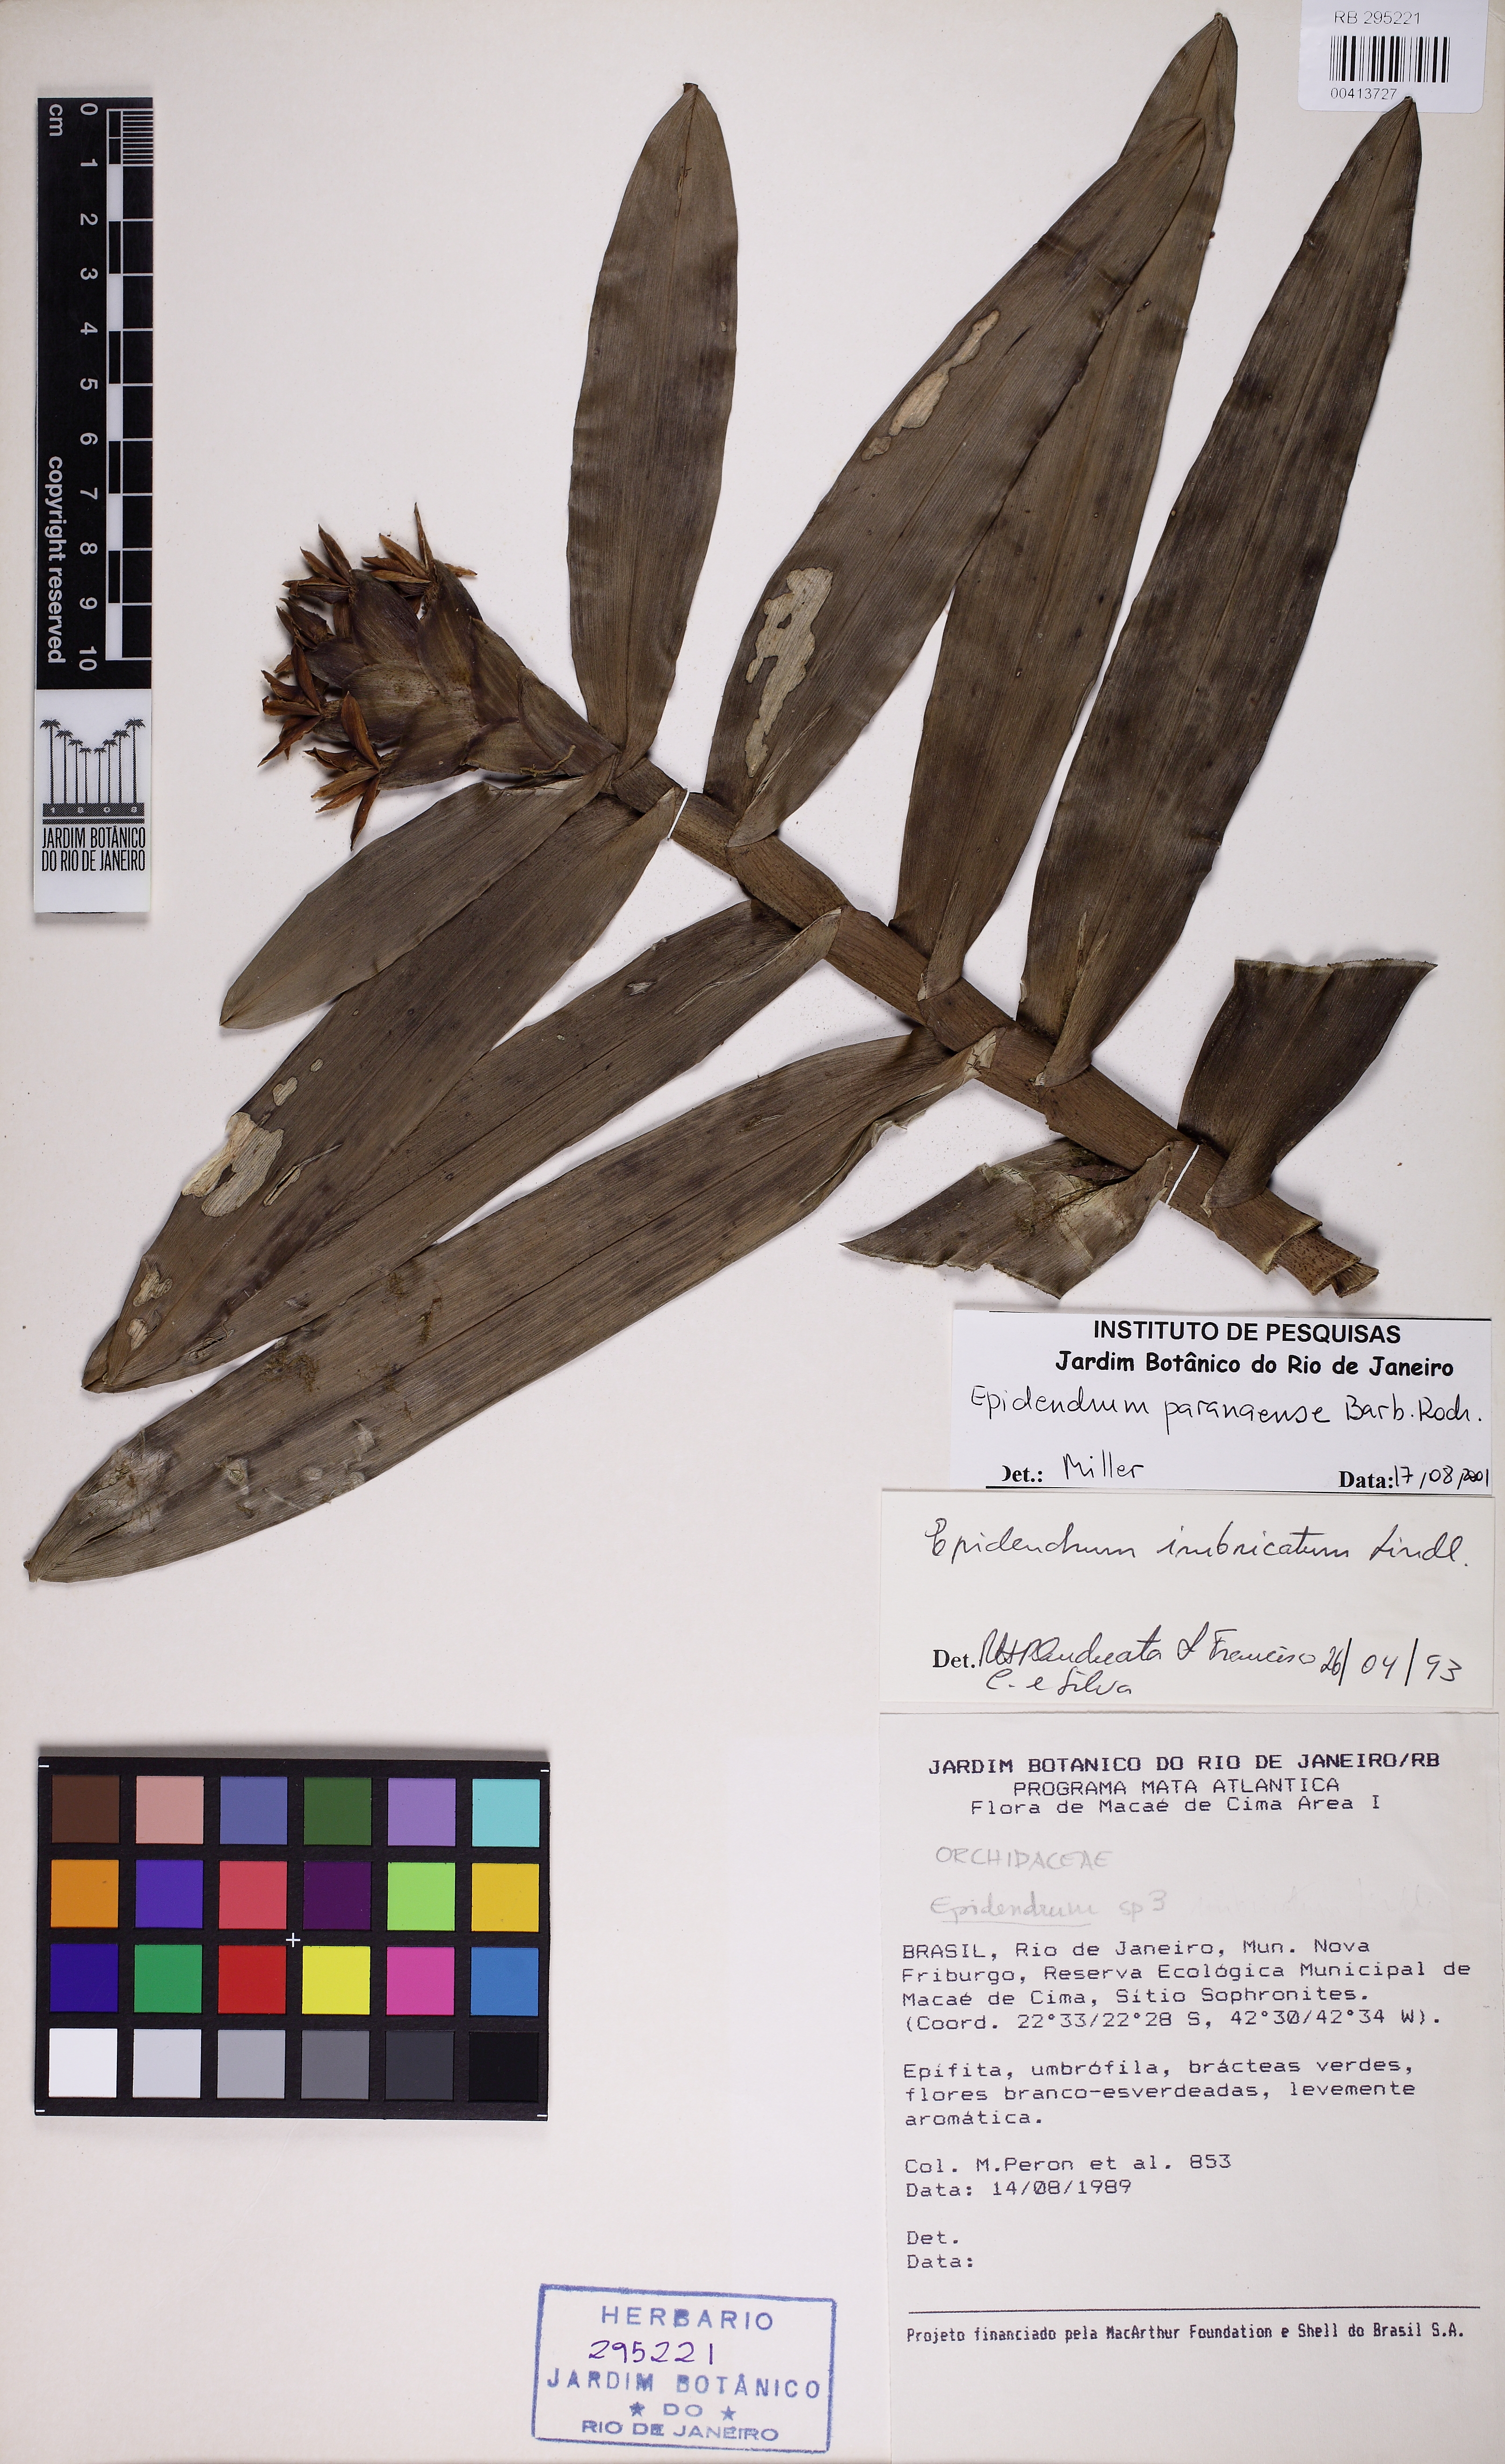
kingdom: Plantae
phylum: Tracheophyta
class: Liliopsida
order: Asparagales
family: Orchidaceae
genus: Epidendrum
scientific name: Epidendrum paranaense
